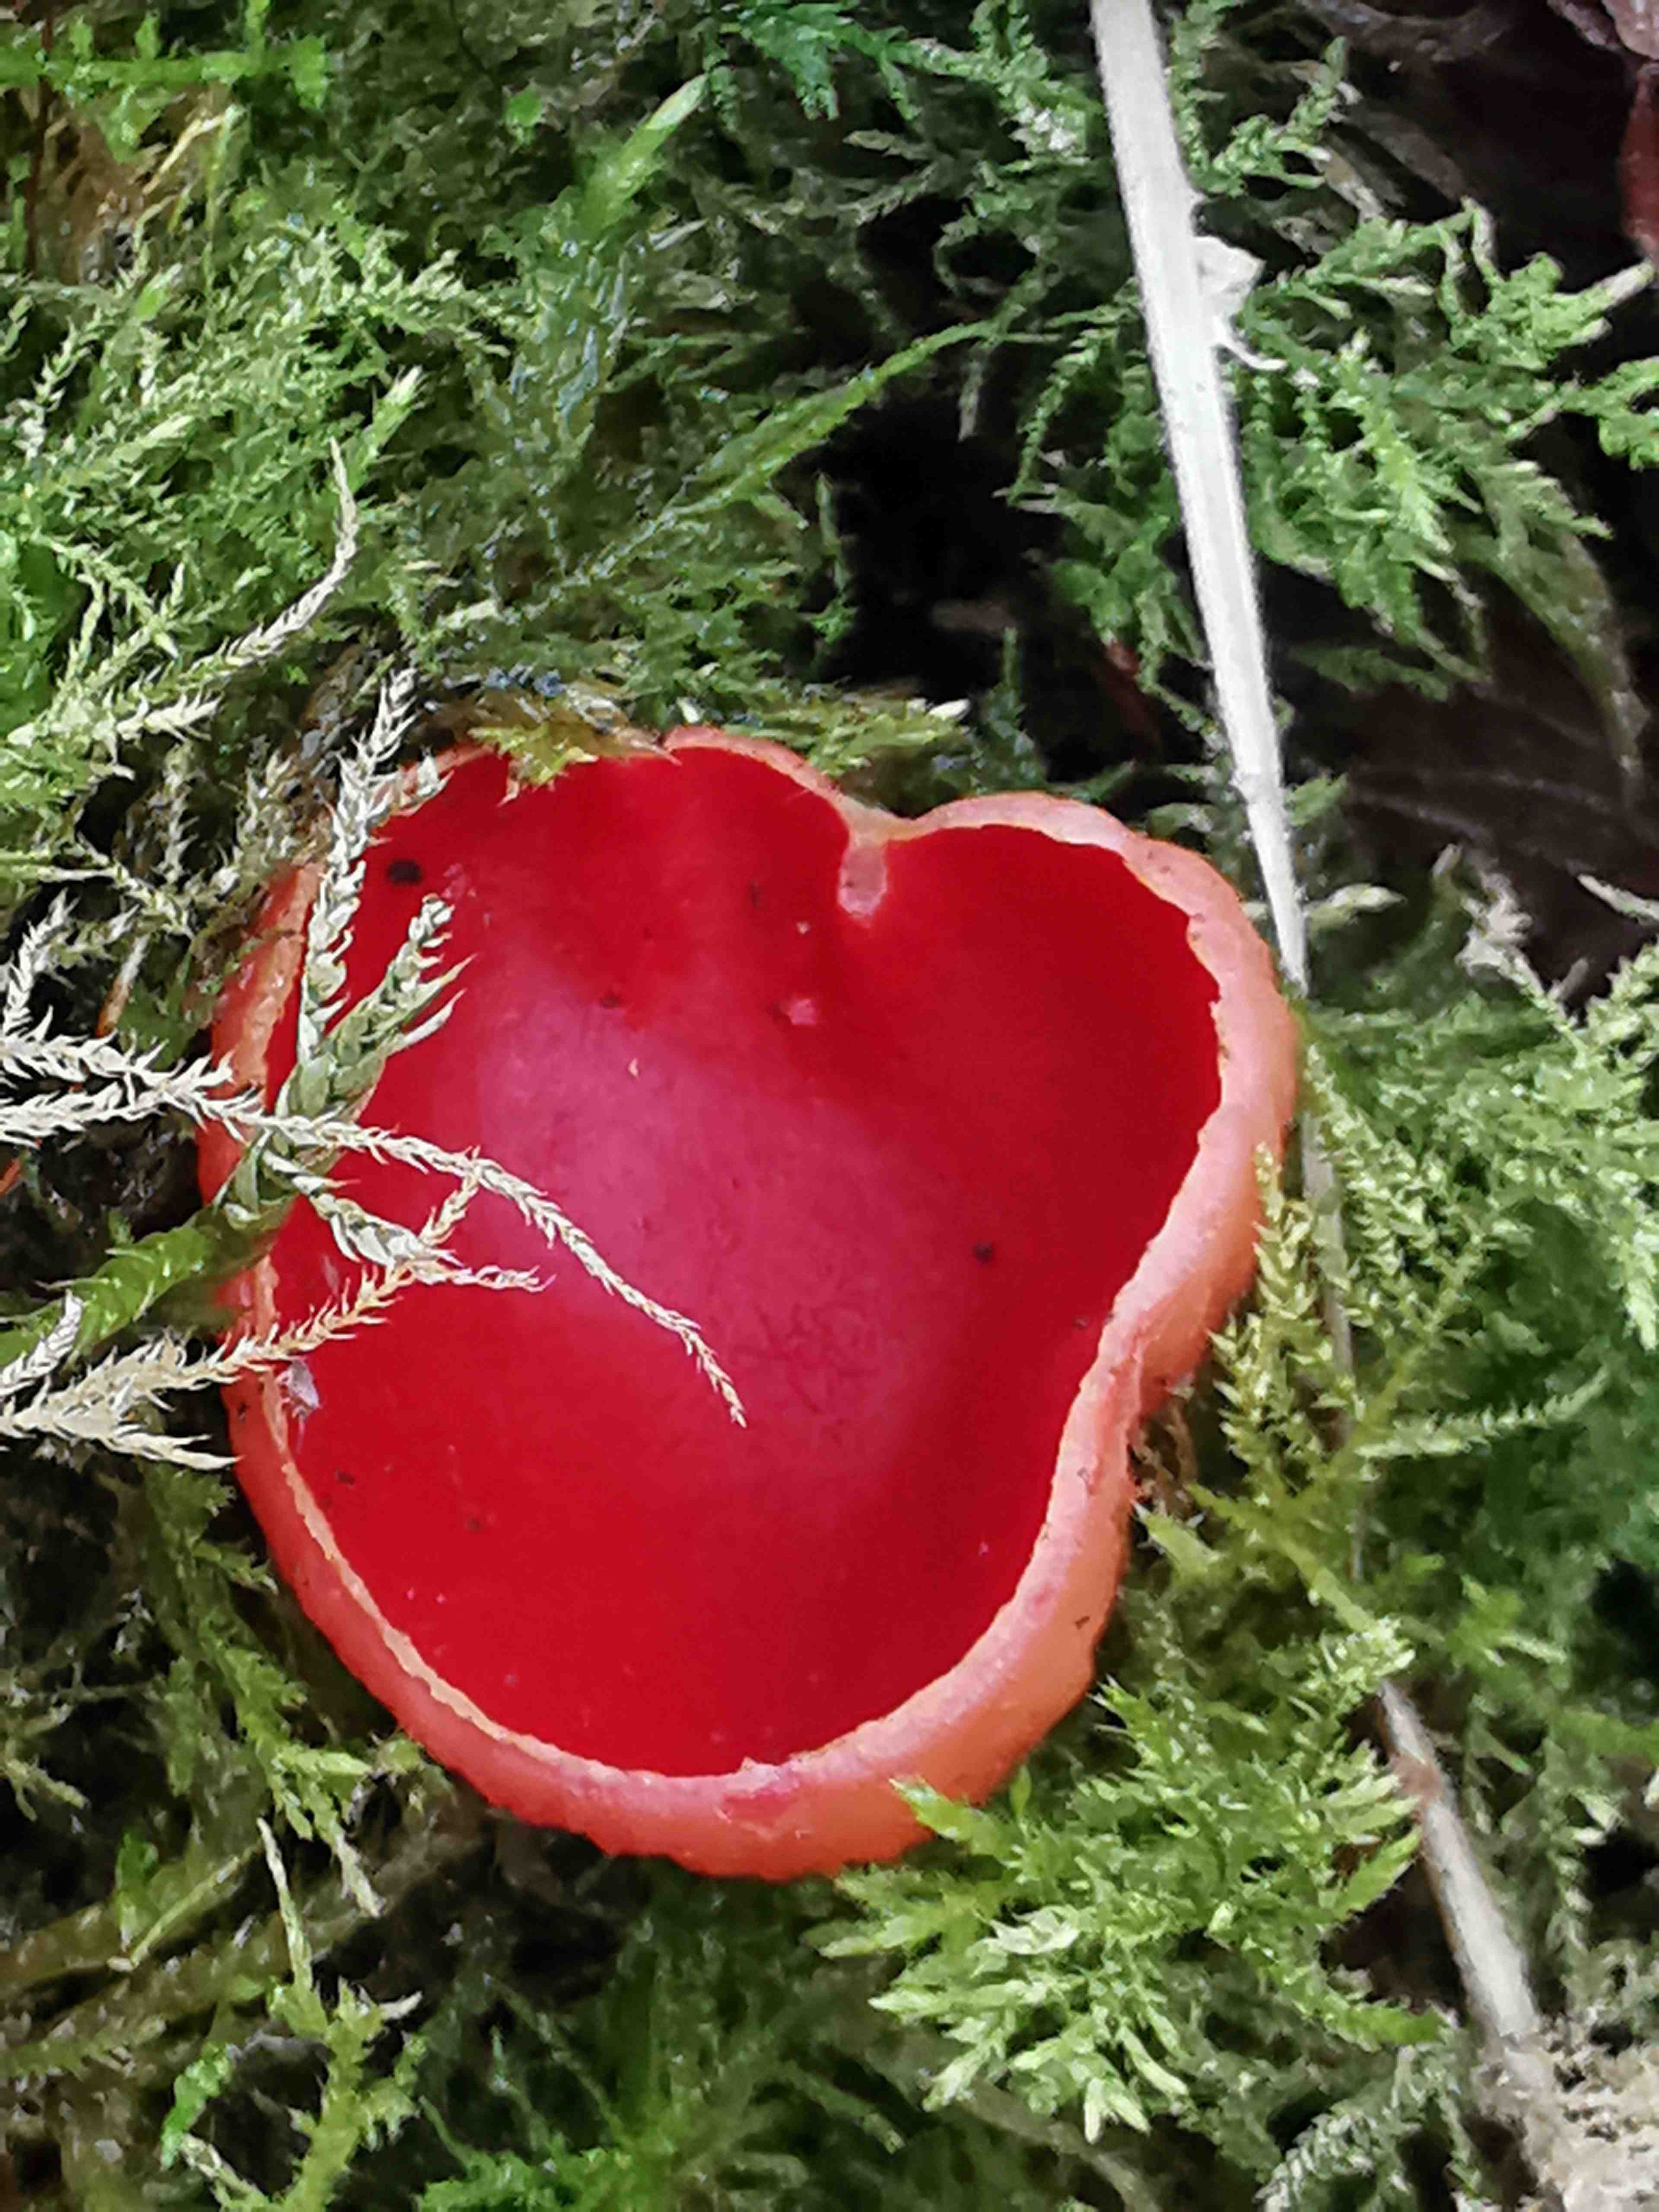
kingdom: Fungi
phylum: Ascomycota
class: Pezizomycetes
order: Pezizales
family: Sarcoscyphaceae
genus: Sarcoscypha
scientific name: Sarcoscypha austriaca
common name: krølhåret pragtbæger
